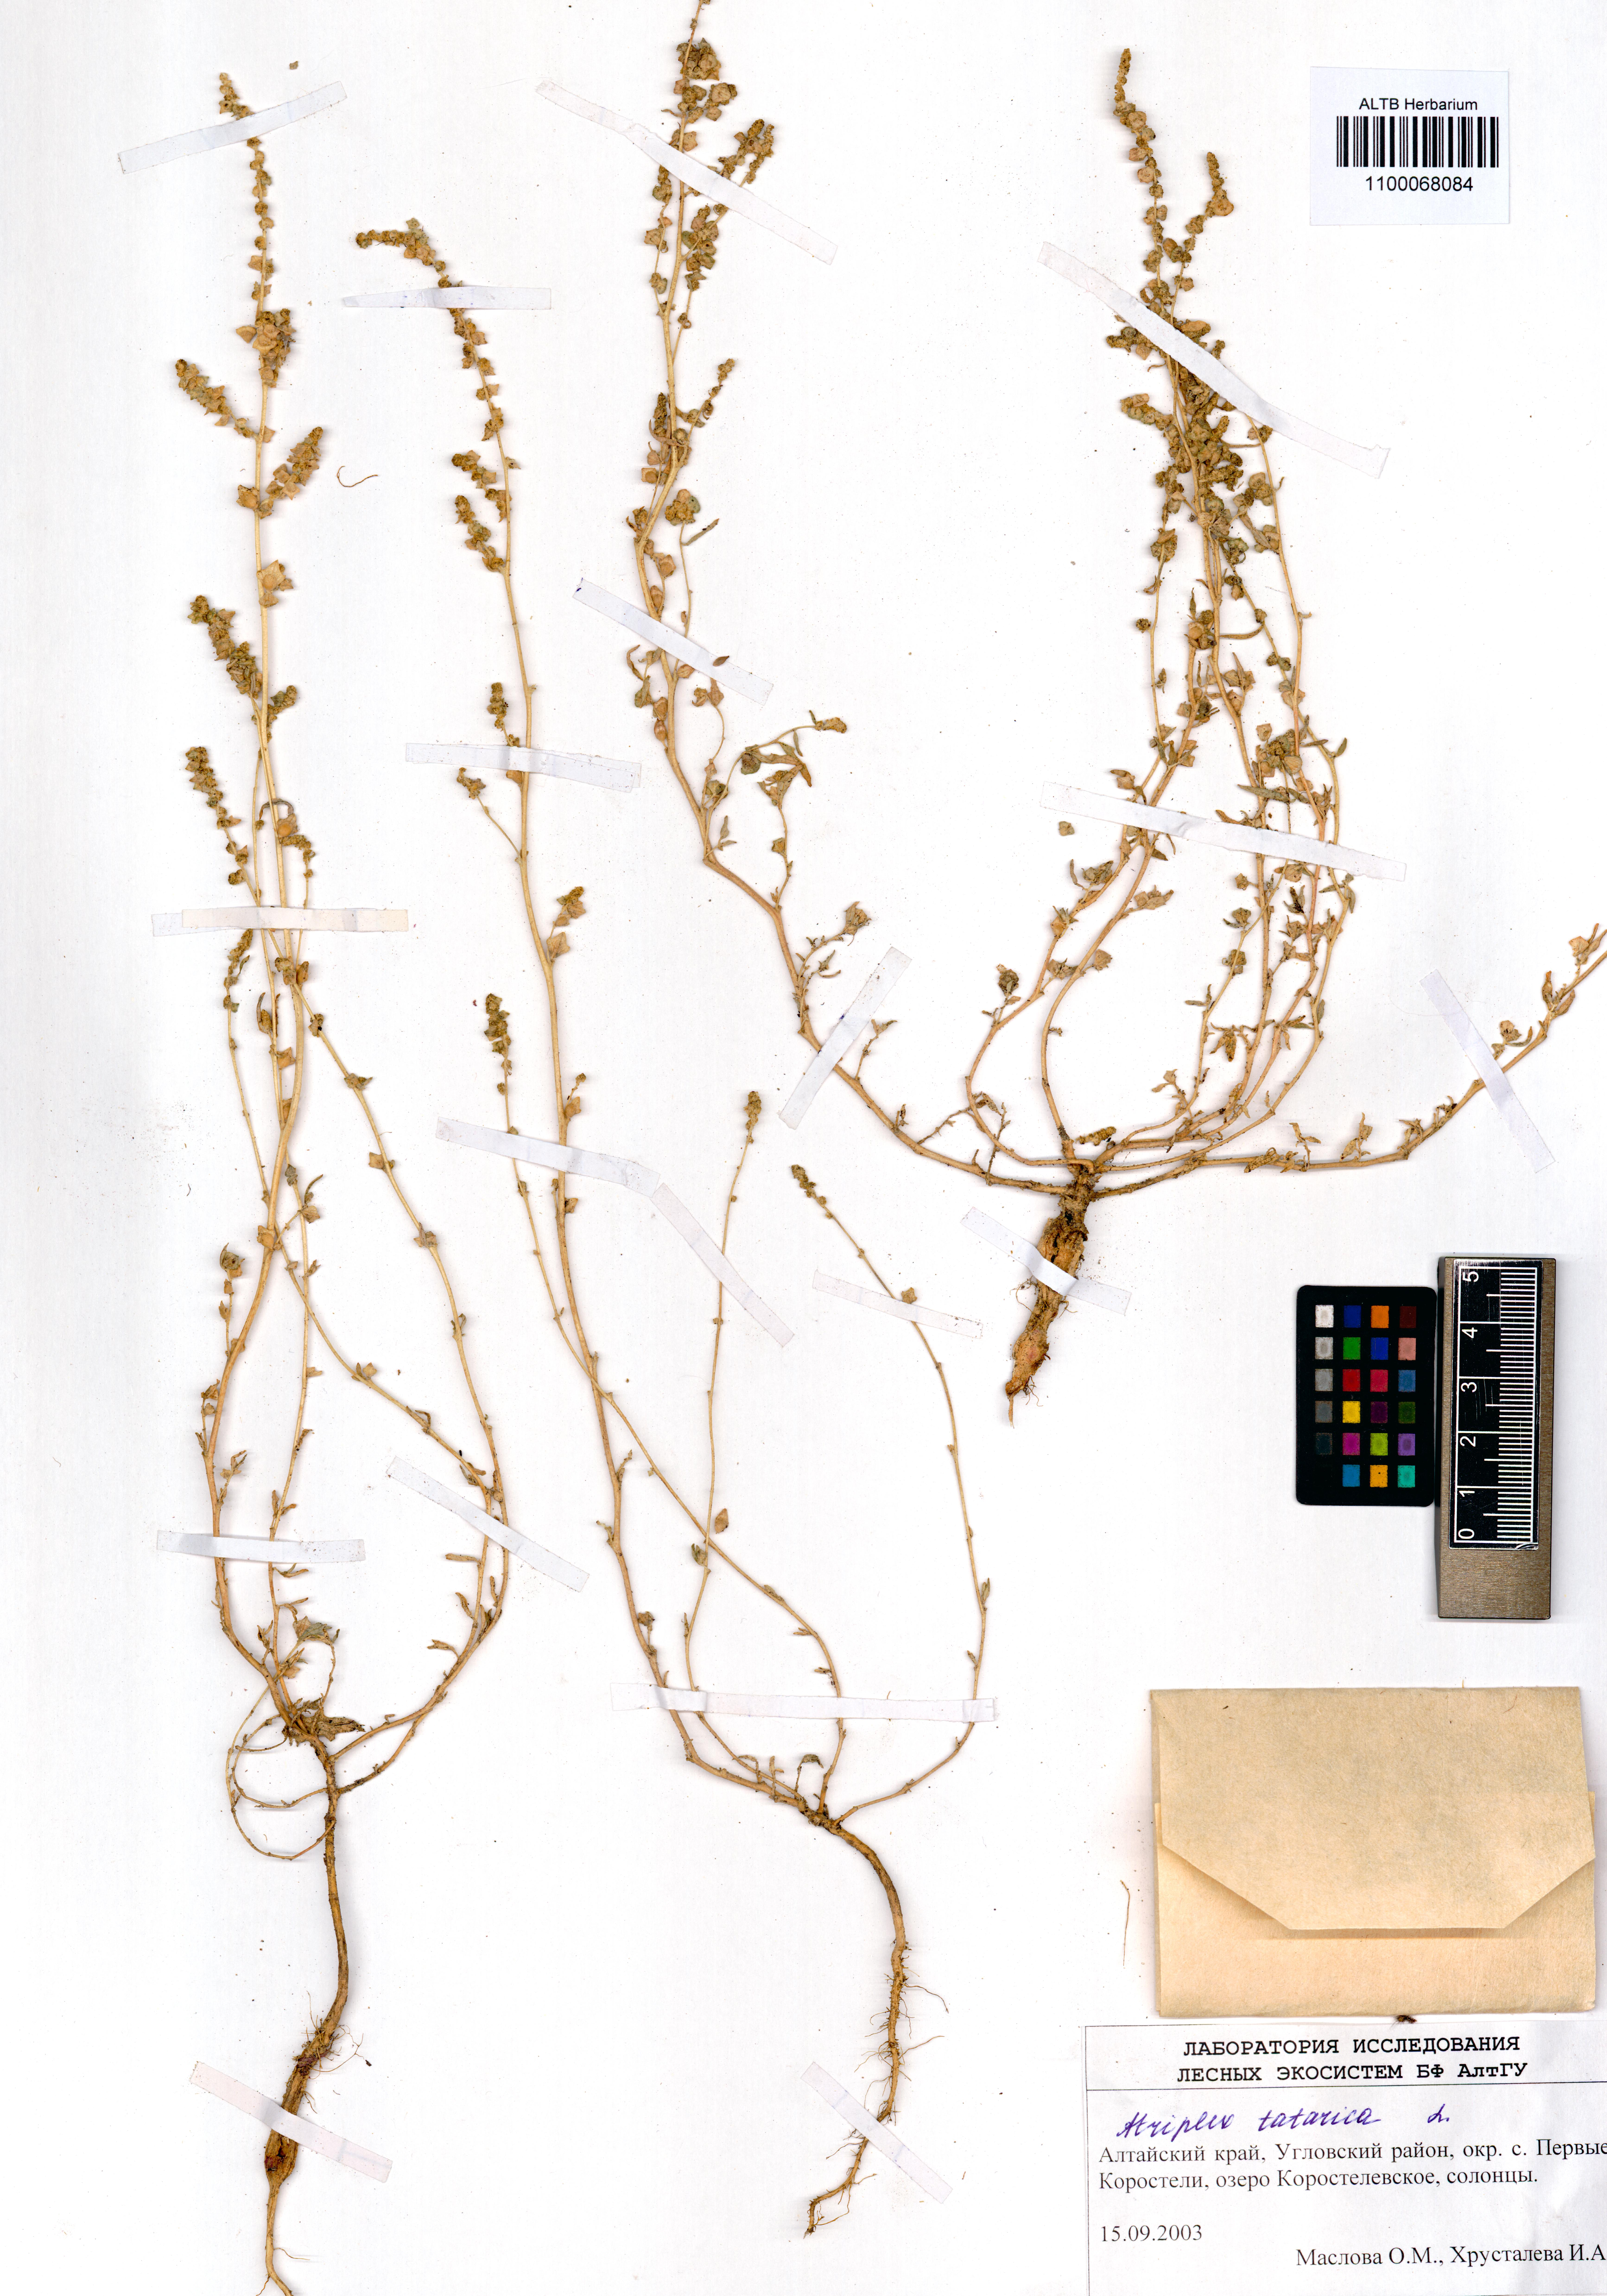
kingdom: Plantae
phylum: Tracheophyta
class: Magnoliopsida
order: Caryophyllales
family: Amaranthaceae
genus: Atriplex
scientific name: Atriplex tatarica
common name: Tatarian orache
